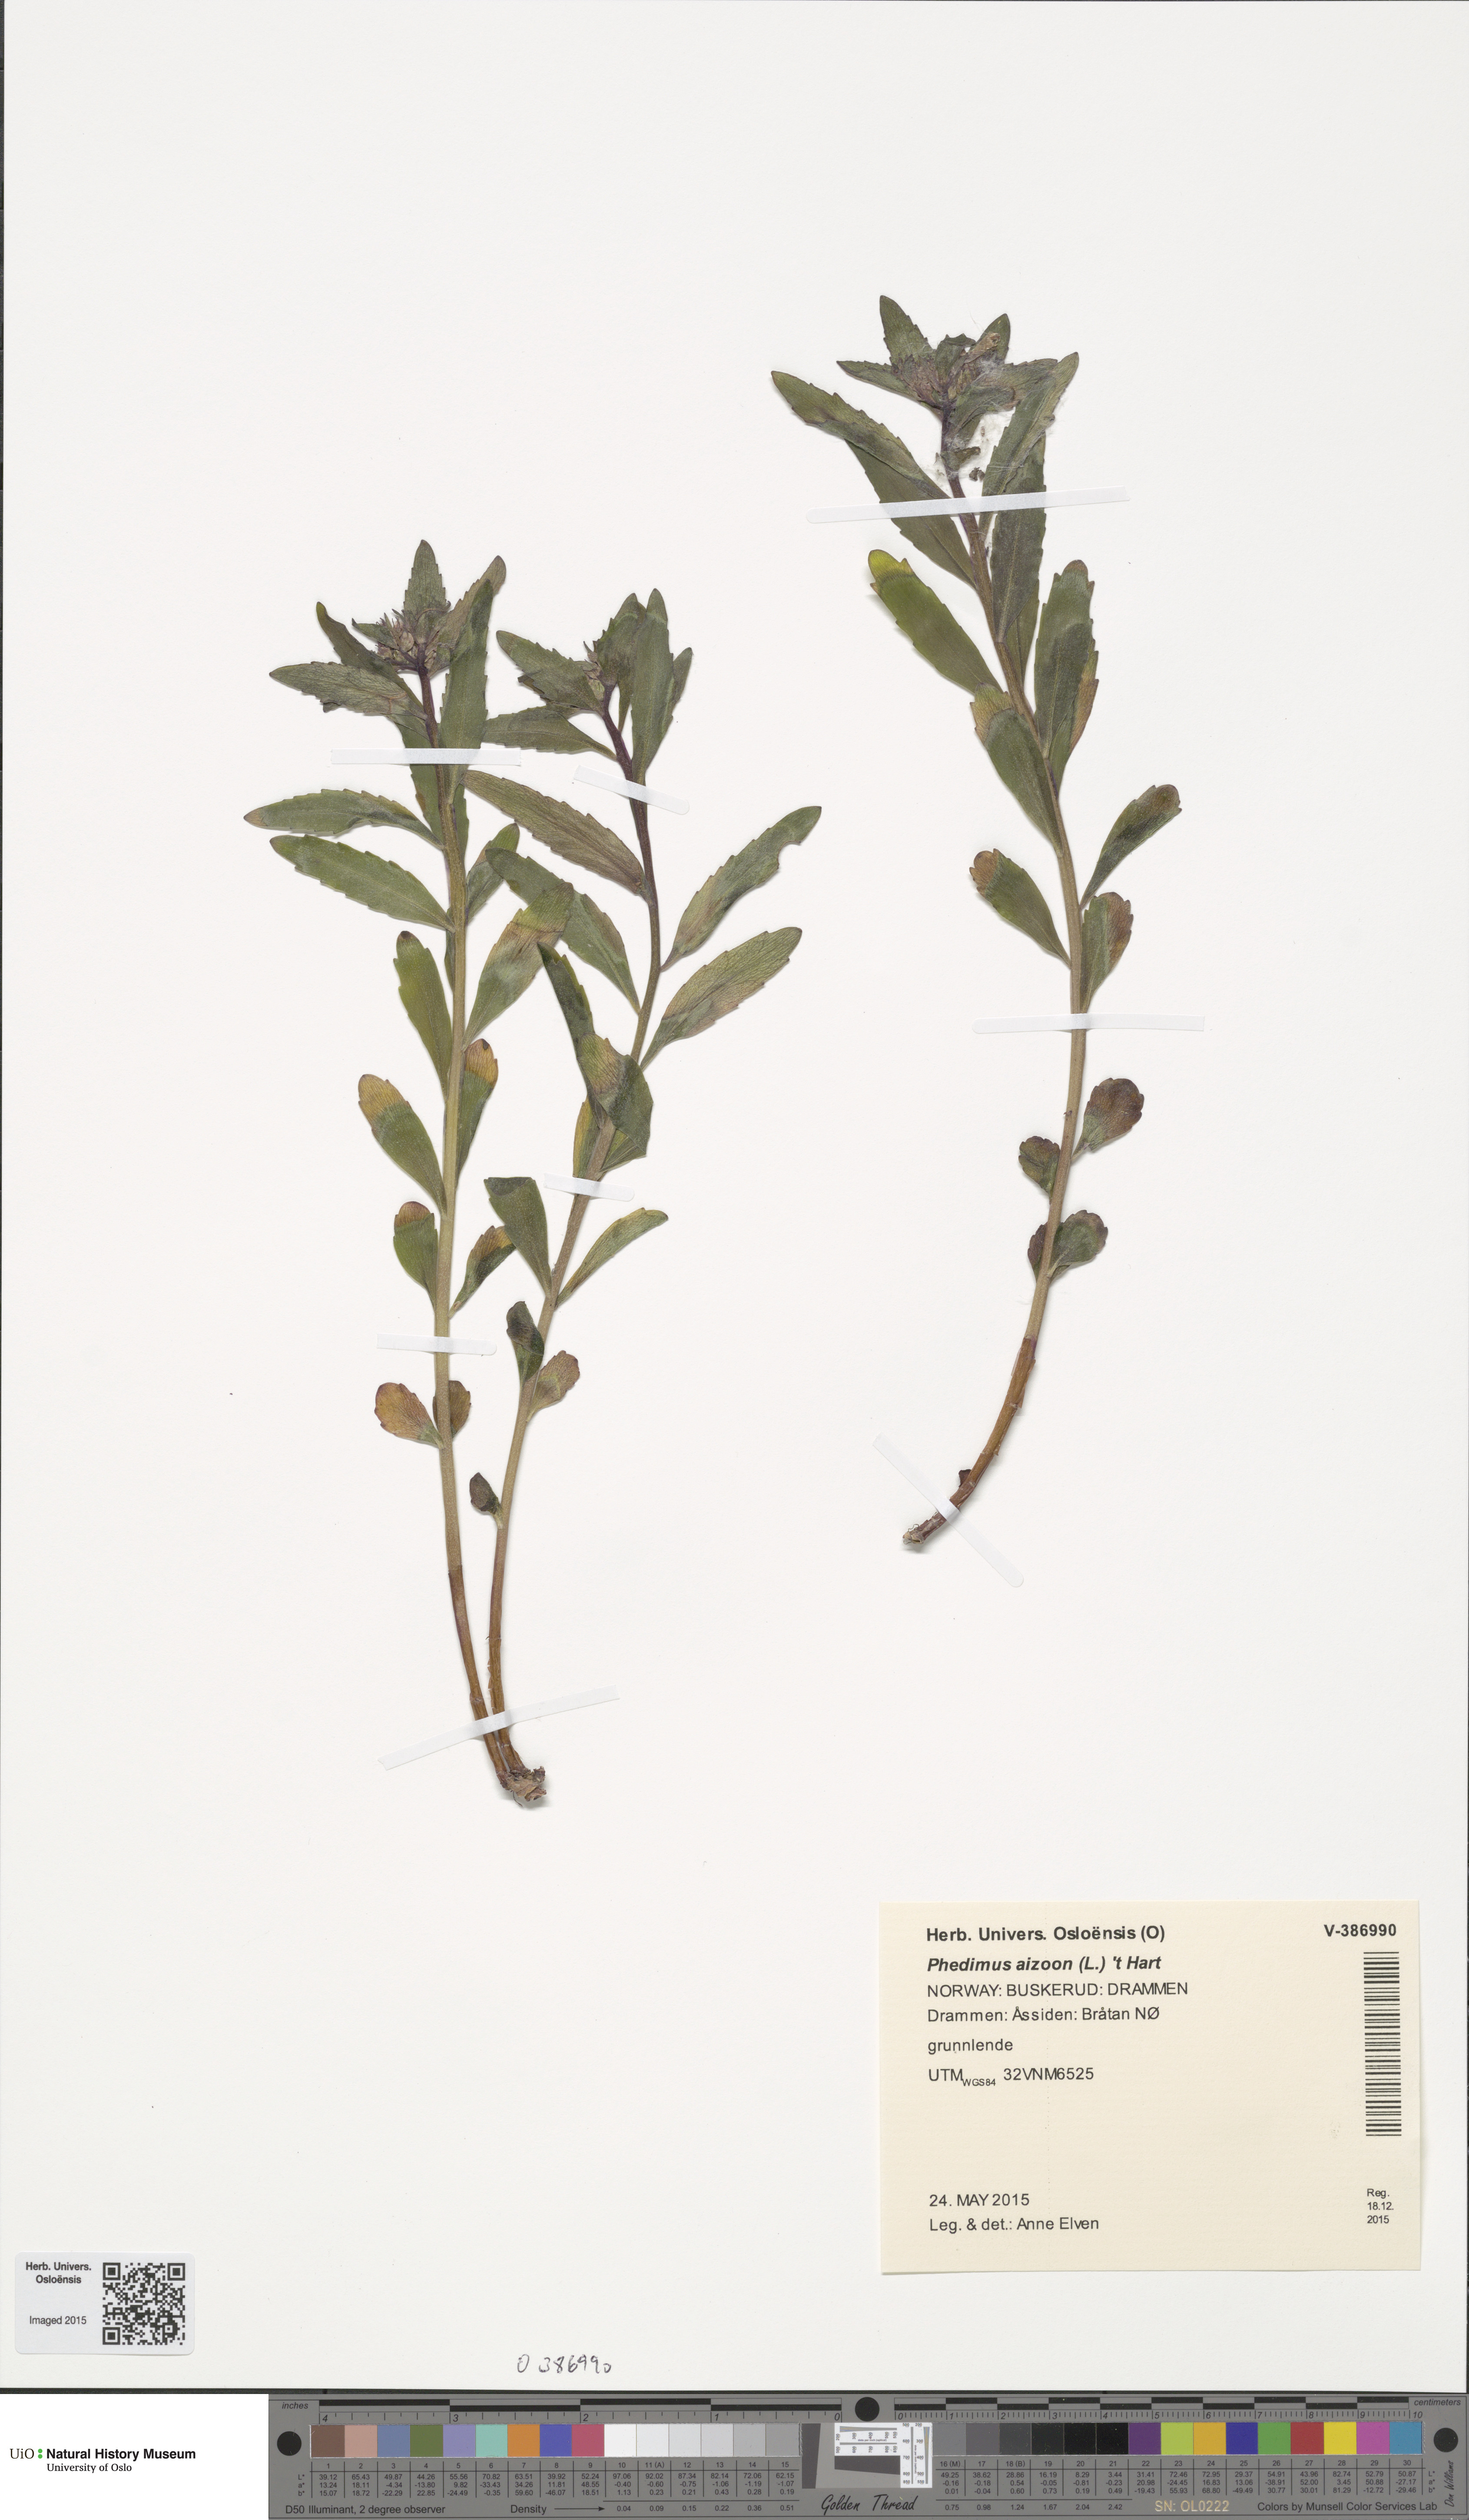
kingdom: Plantae
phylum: Tracheophyta
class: Magnoliopsida
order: Saxifragales
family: Crassulaceae
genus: Phedimus
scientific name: Phedimus aizoon
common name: Orpin aizoon
